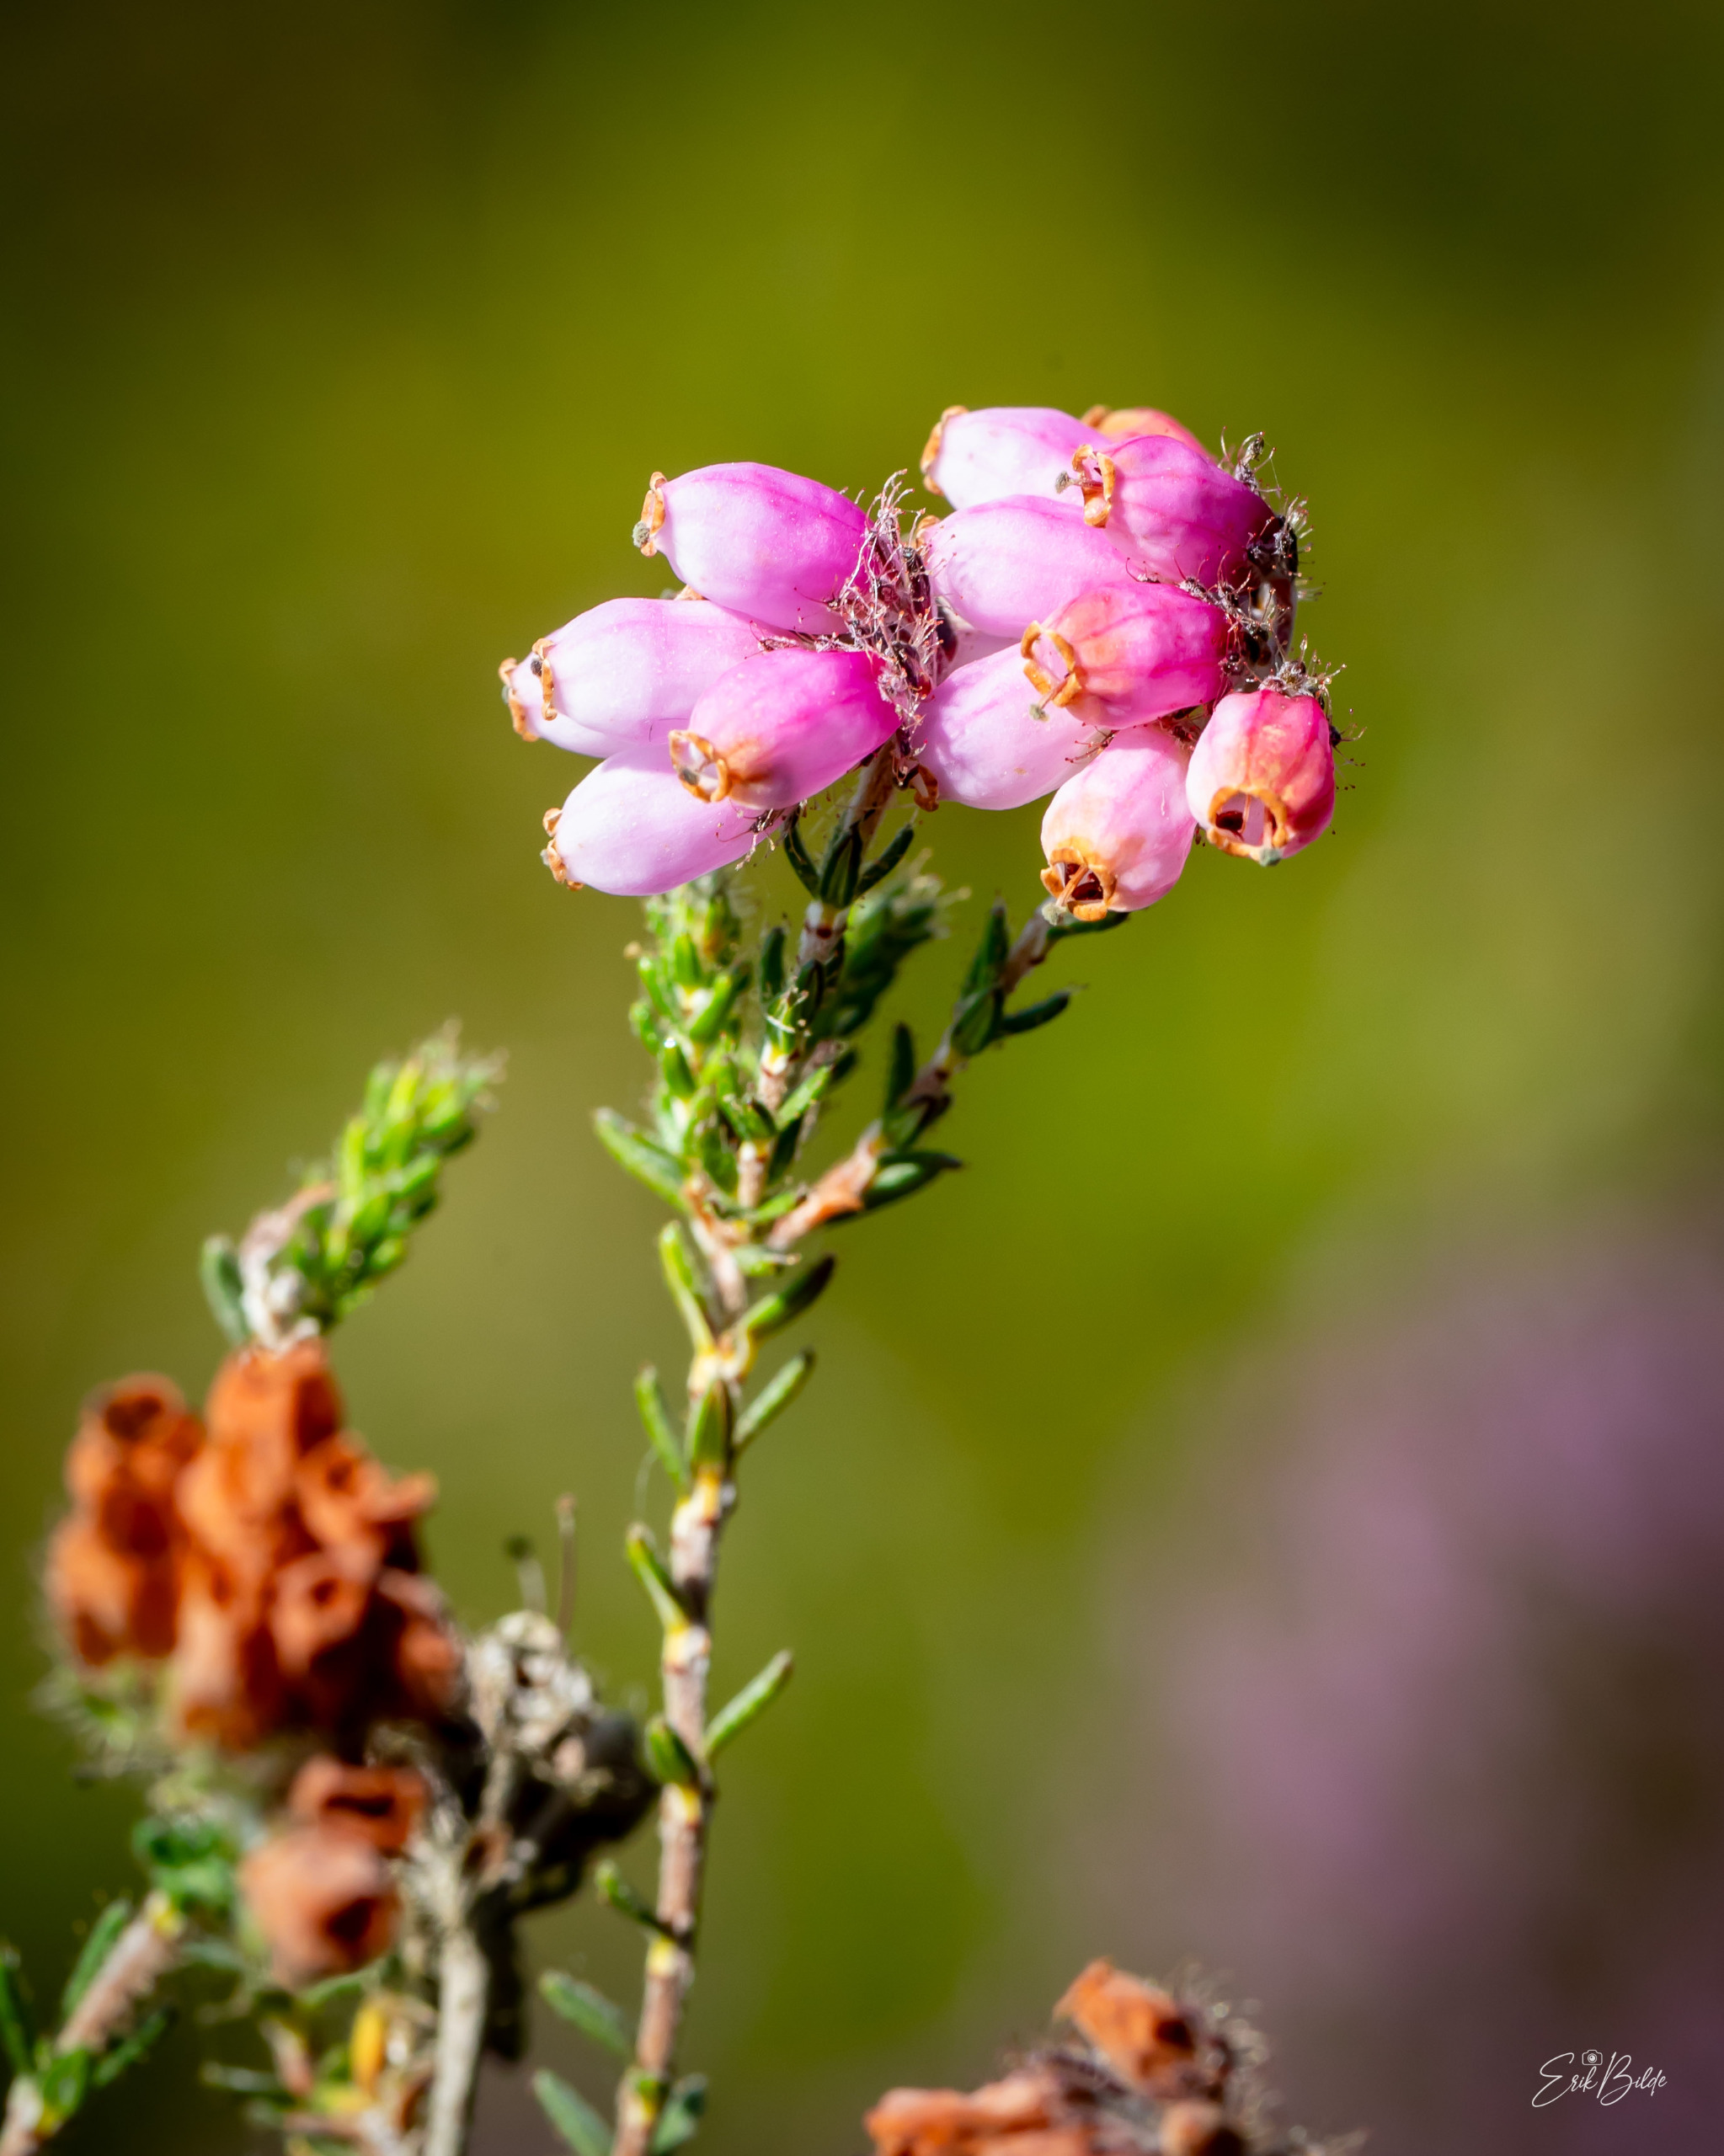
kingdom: Plantae
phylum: Tracheophyta
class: Magnoliopsida
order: Ericales
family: Ericaceae
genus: Erica
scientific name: Erica tetralix
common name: Klokkelyng
